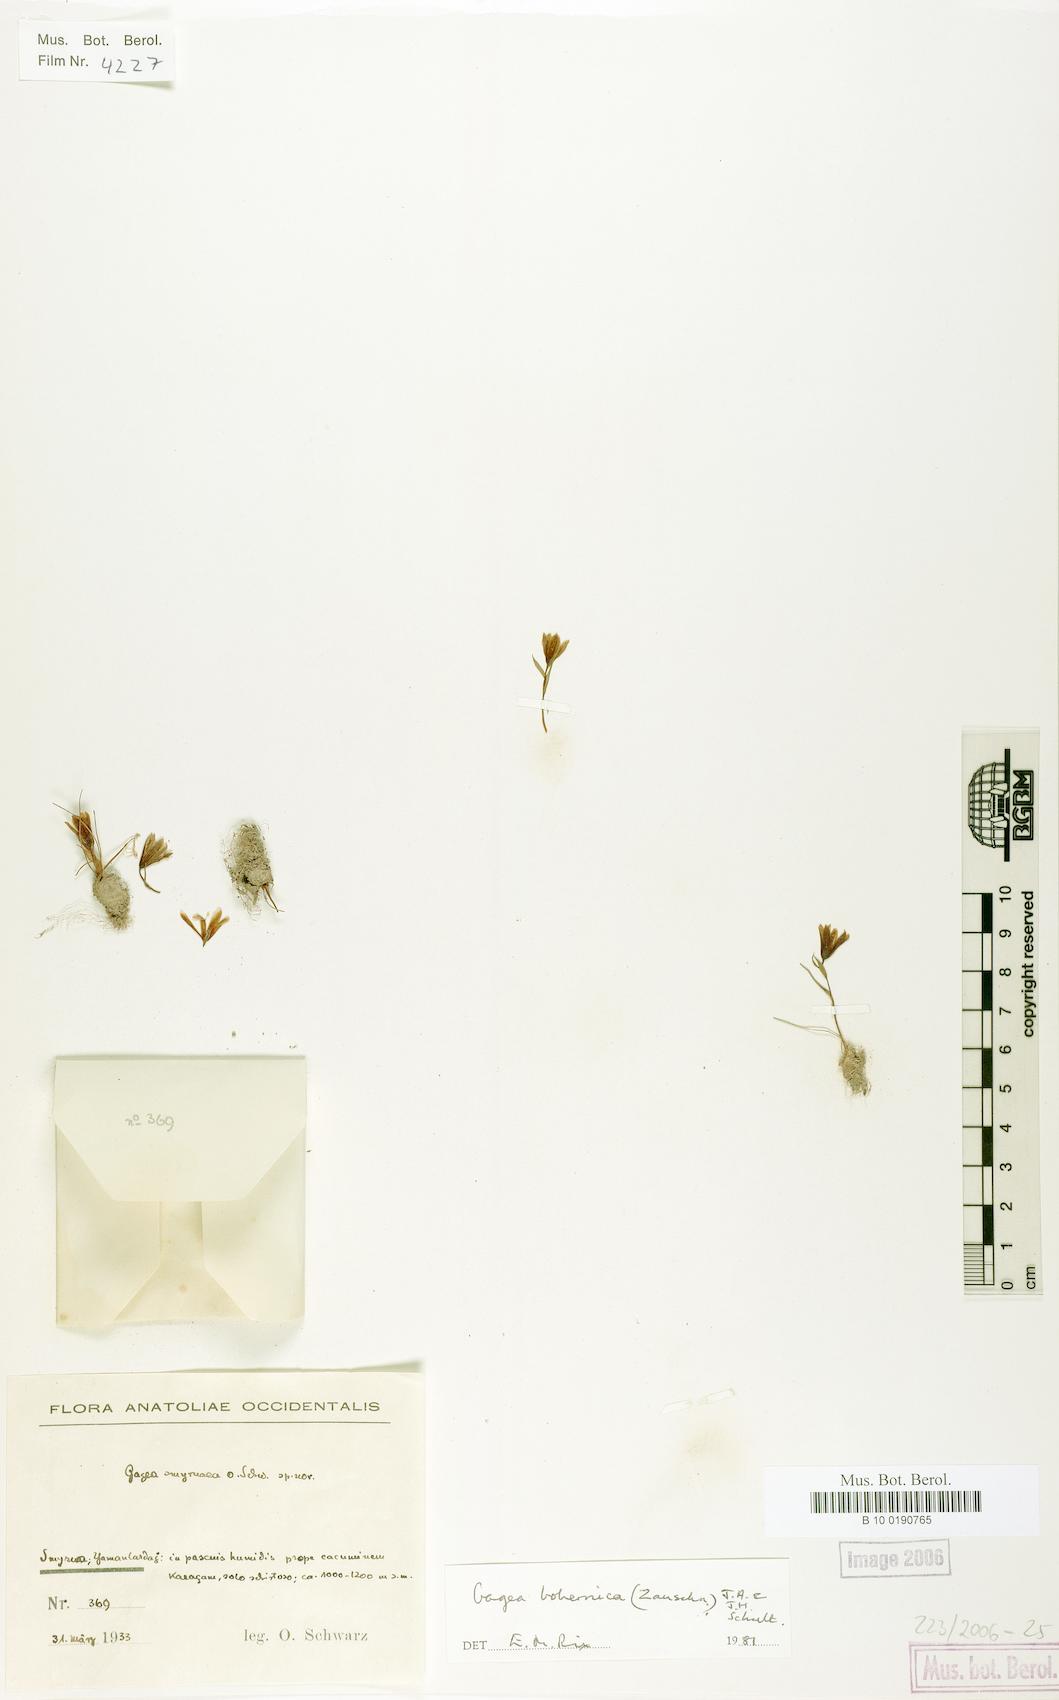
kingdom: Plantae
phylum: Tracheophyta
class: Liliopsida
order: Liliales
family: Liliaceae
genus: Gagea
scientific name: Gagea bohemica
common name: Early star-of-bethlehem
